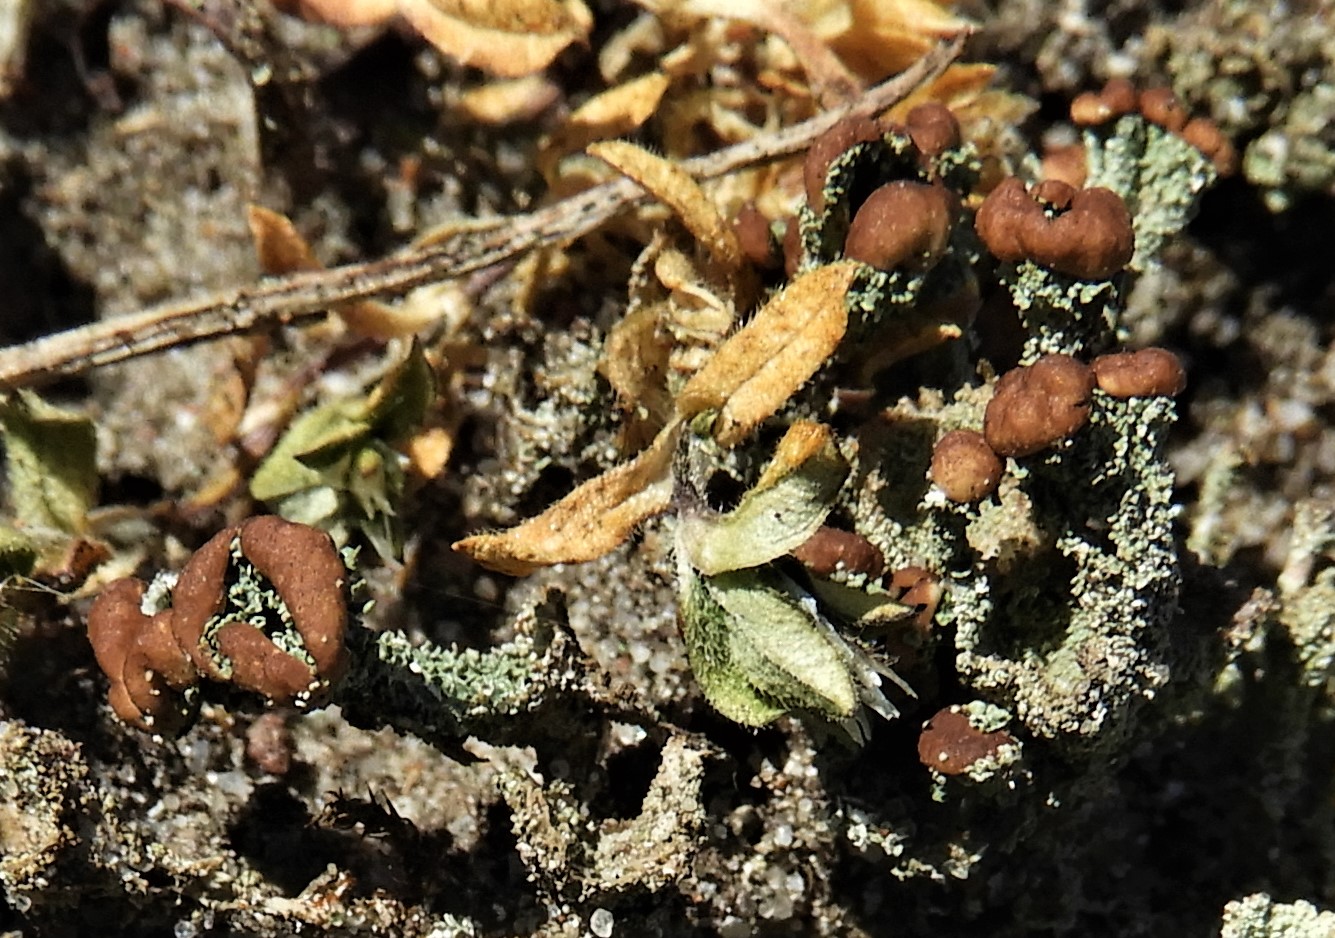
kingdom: Fungi
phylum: Ascomycota
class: Lecanoromycetes
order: Lecanorales
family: Cladoniaceae
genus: Cladonia
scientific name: Cladonia ramulosa
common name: kliddet bægerlav
